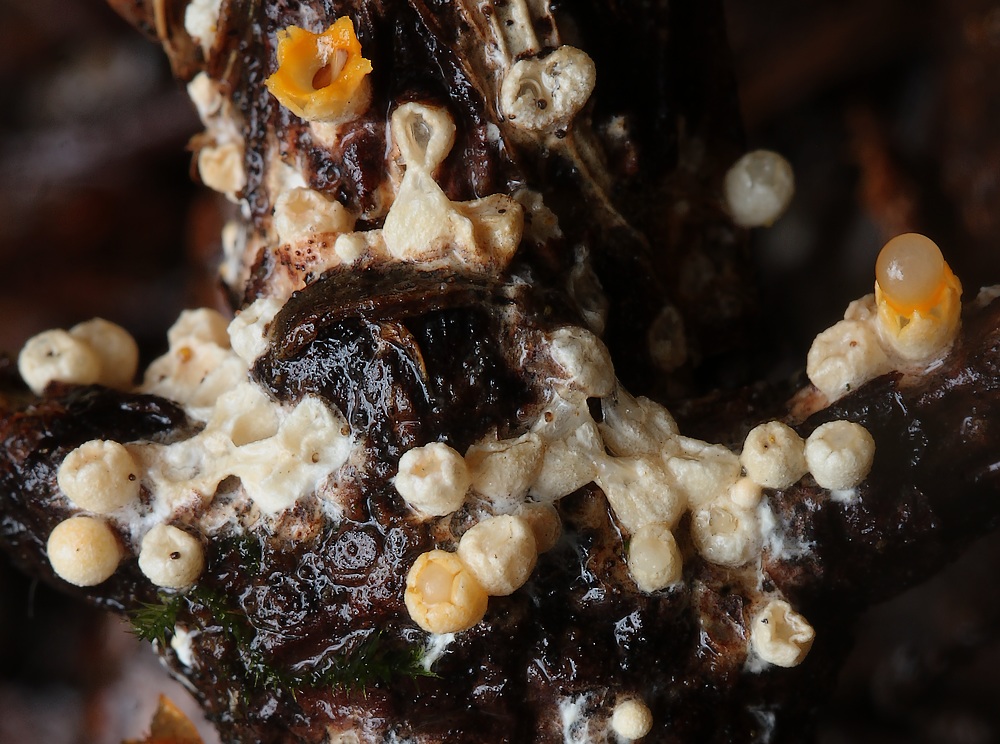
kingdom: Fungi
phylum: Basidiomycota
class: Agaricomycetes
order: Geastrales
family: Geastraceae
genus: Sphaerobolus
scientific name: Sphaerobolus stellatus
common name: bombekaster
